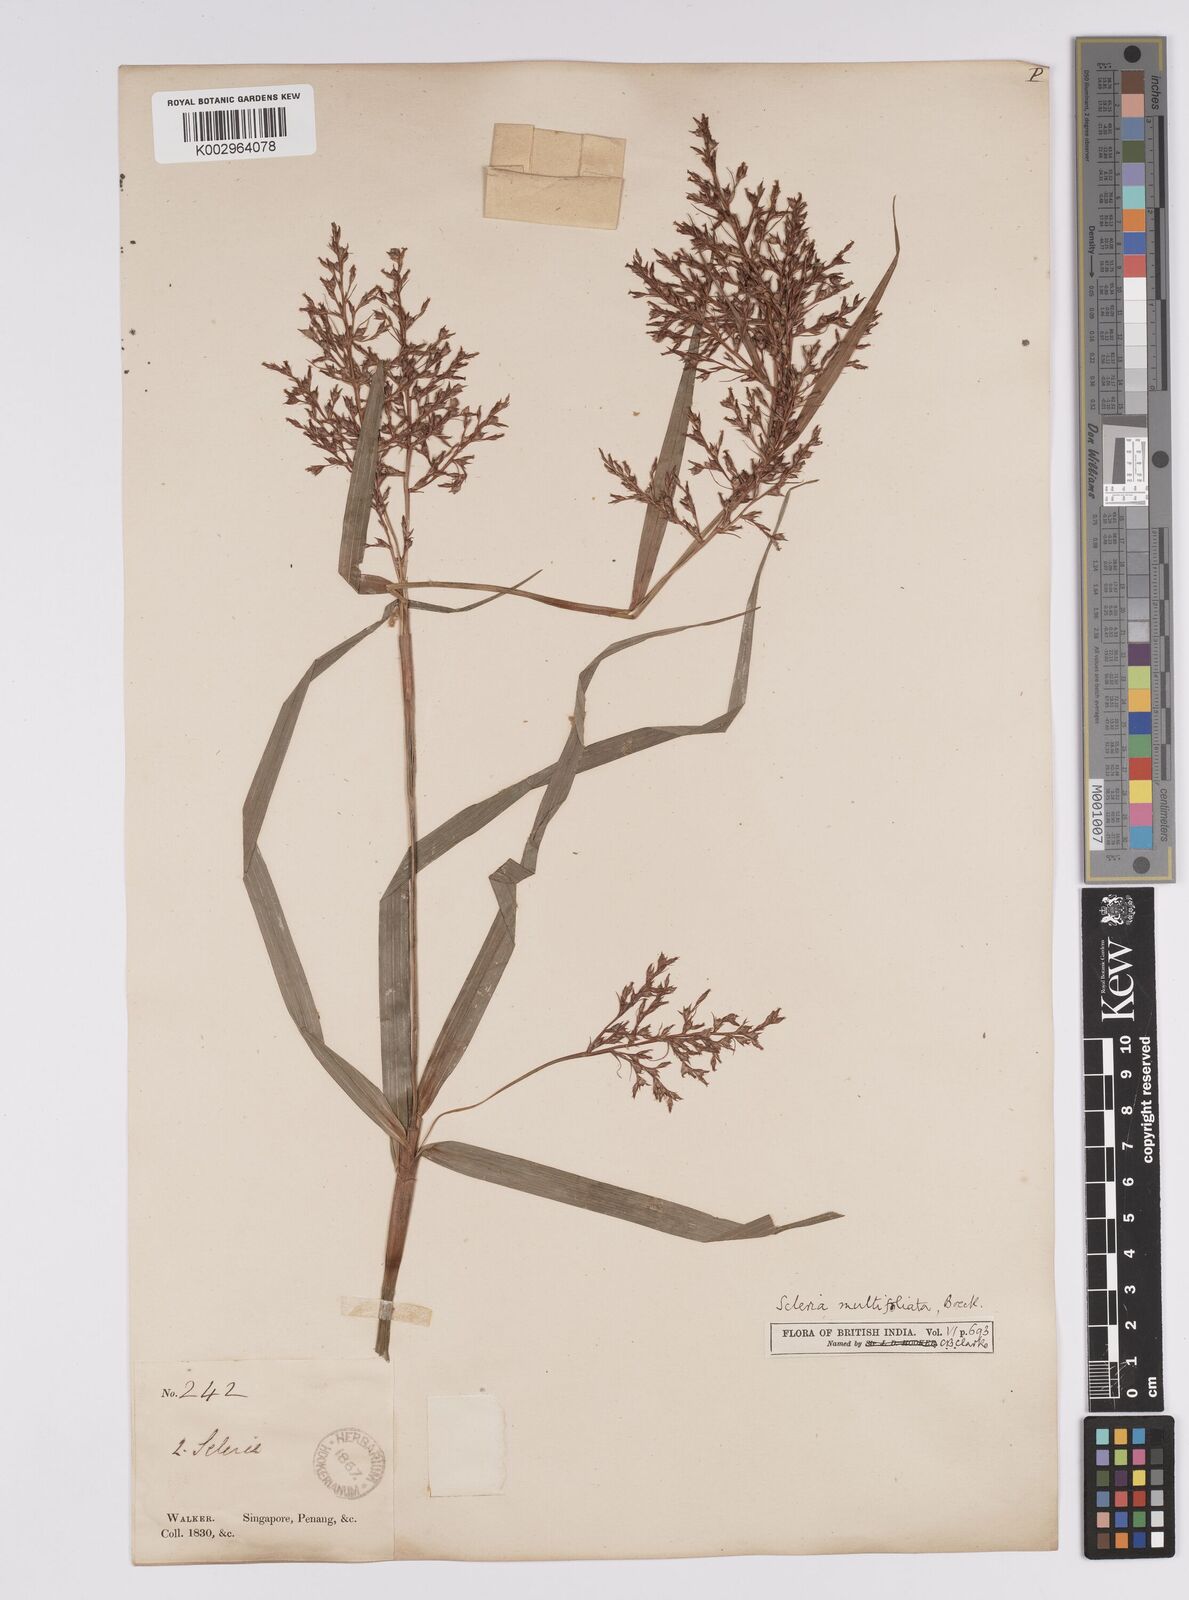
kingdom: Plantae
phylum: Tracheophyta
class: Liliopsida
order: Poales
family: Cyperaceae
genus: Scleria
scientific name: Scleria purpurascens
